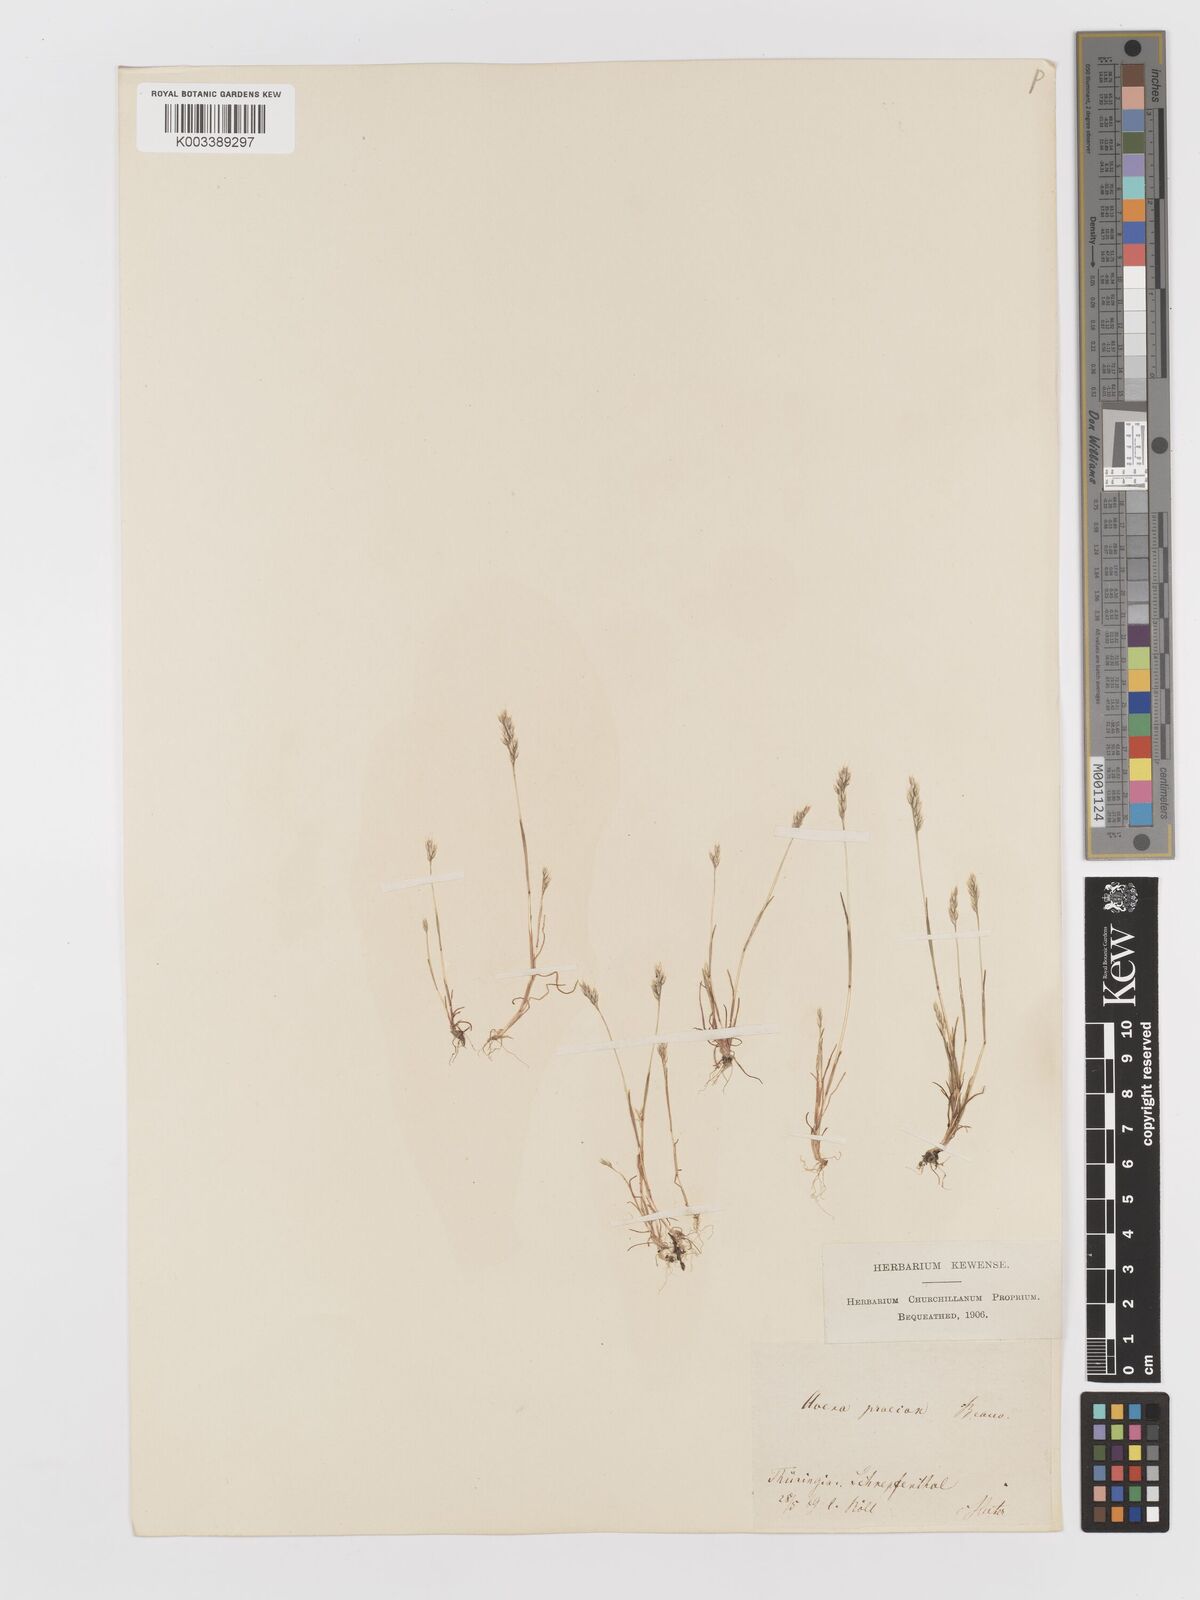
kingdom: Plantae
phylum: Tracheophyta
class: Liliopsida
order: Poales
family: Poaceae
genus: Aira
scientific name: Aira praecox
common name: Early hair-grass
